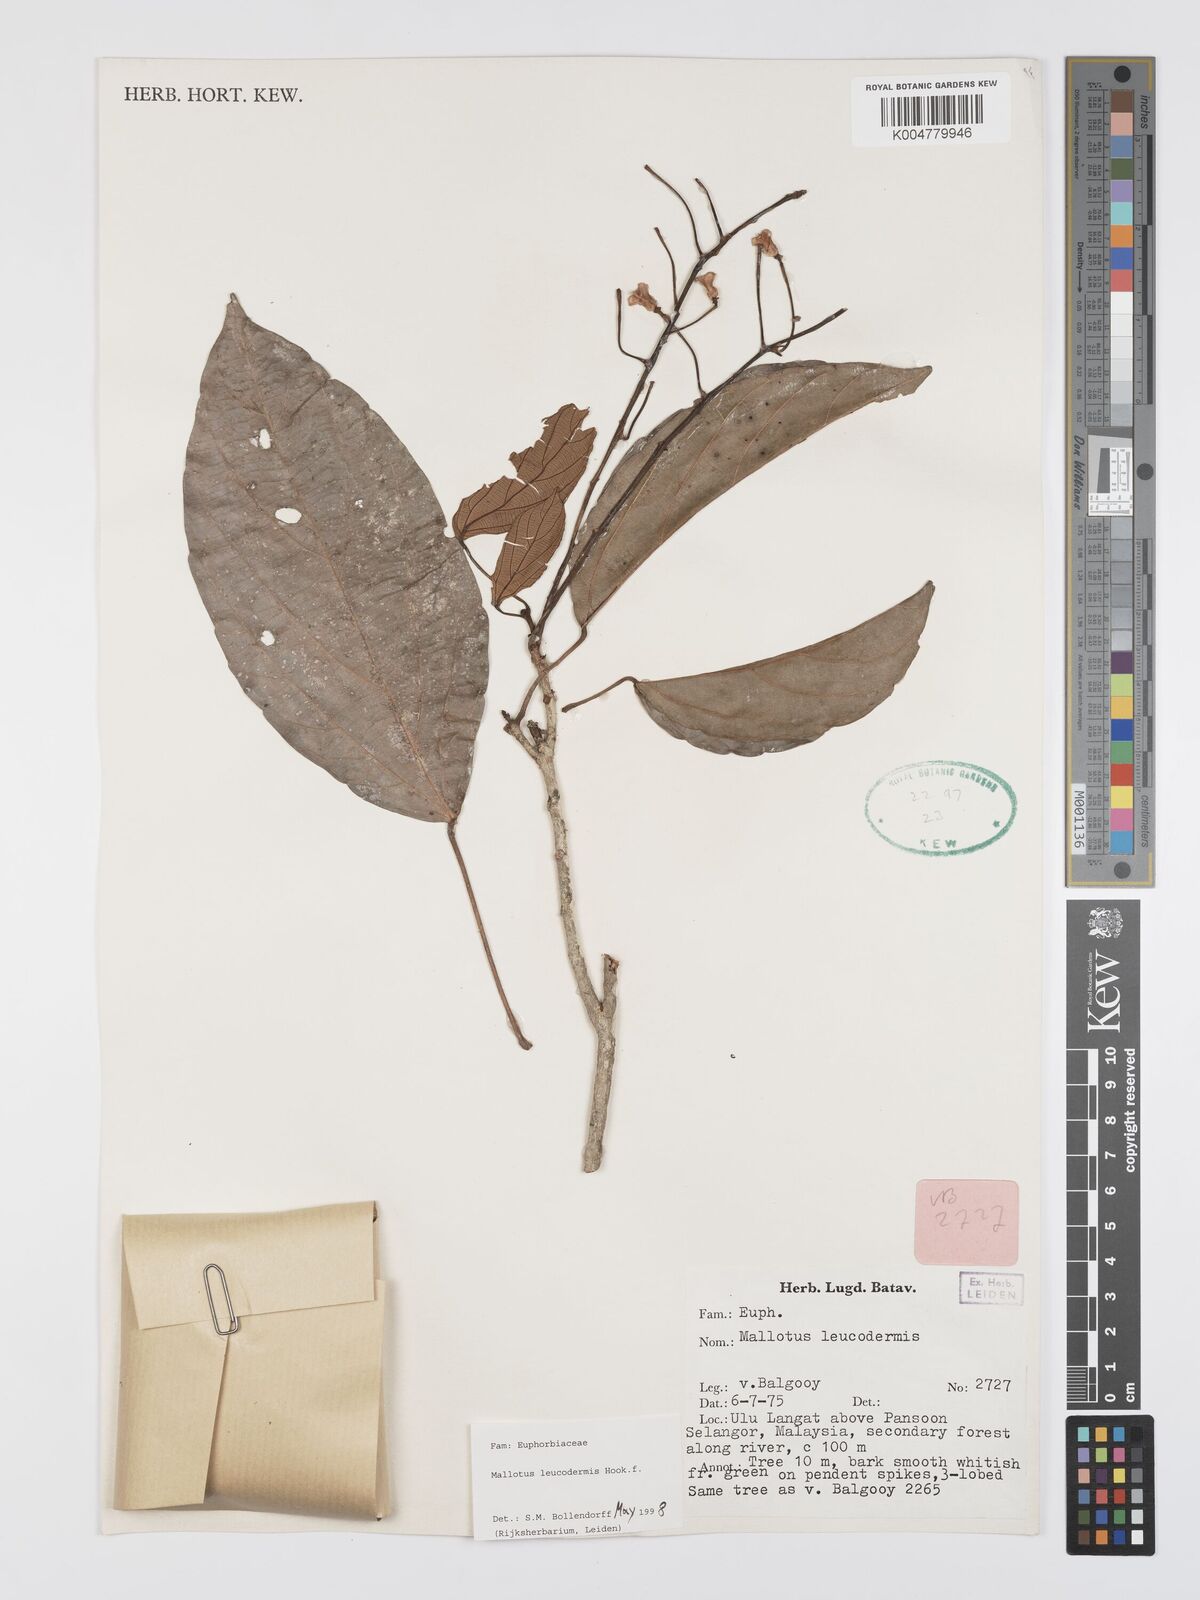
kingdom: Plantae
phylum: Tracheophyta
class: Magnoliopsida
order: Malpighiales
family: Euphorbiaceae
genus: Mallotus
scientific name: Mallotus leucodermis
